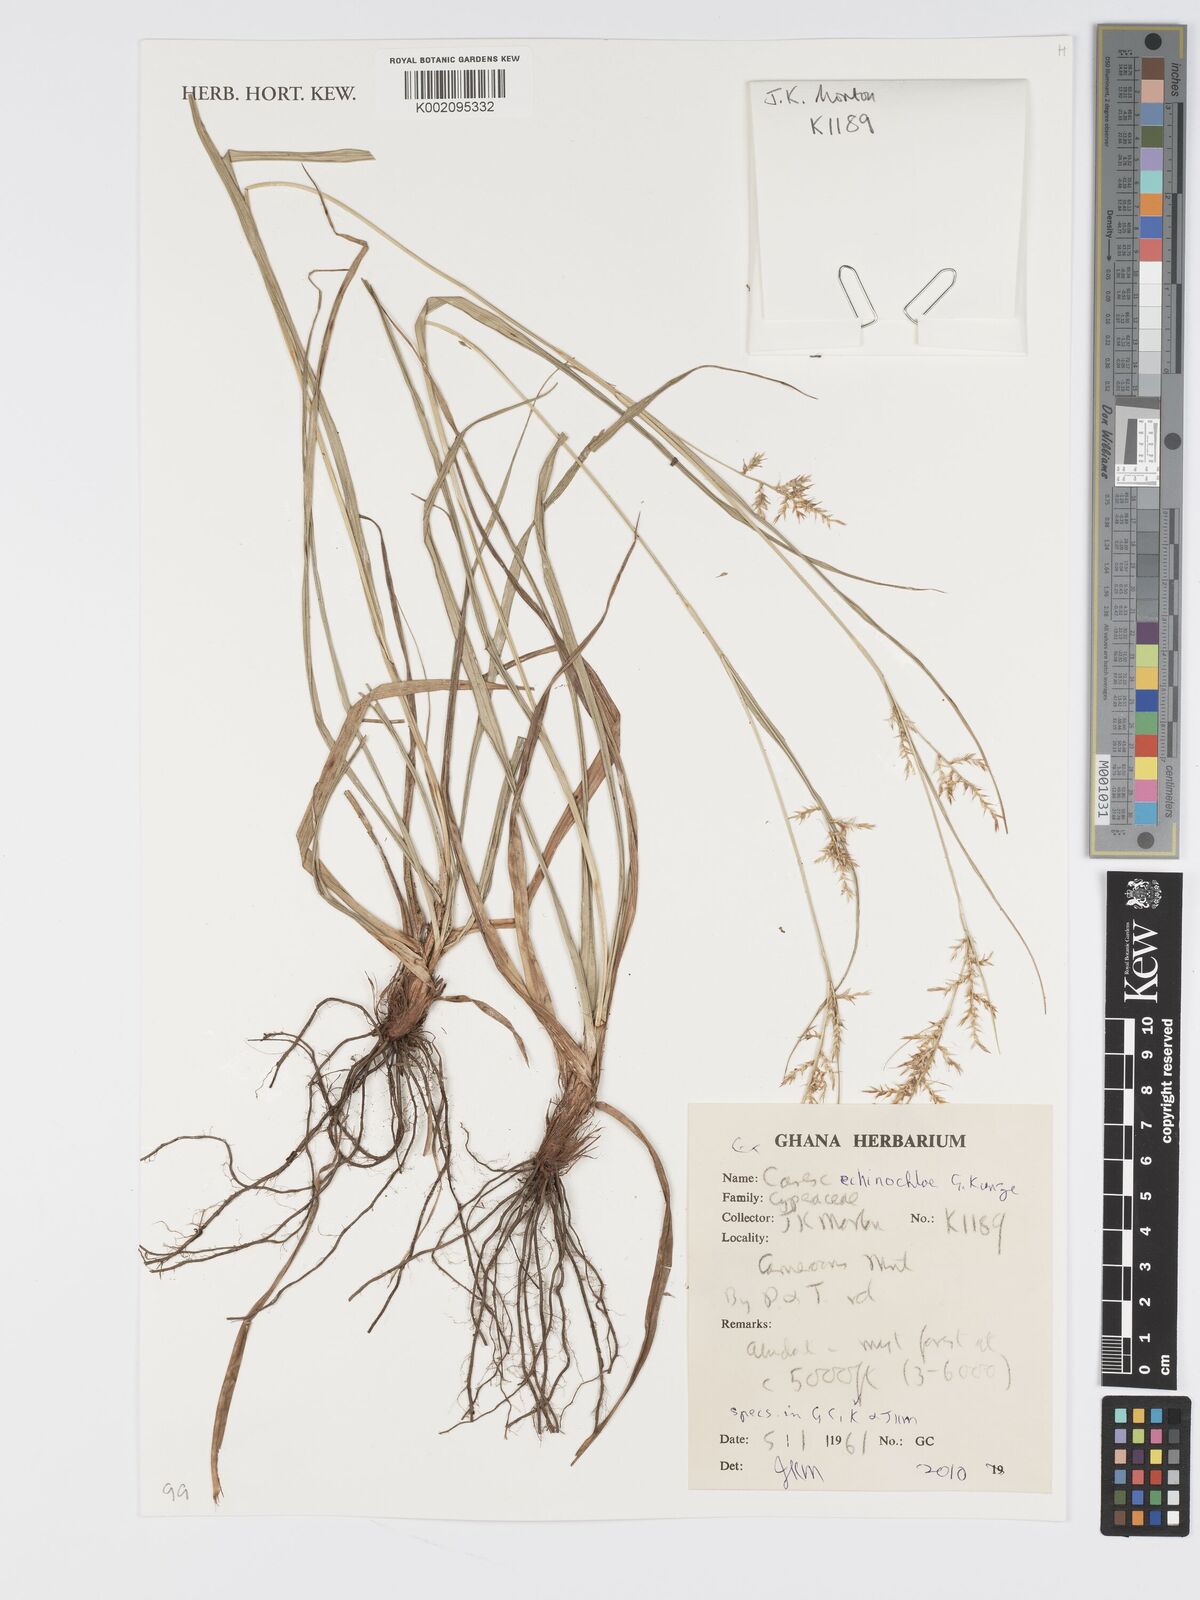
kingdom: Plantae
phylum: Tracheophyta
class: Liliopsida
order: Poales
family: Cyperaceae
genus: Carex
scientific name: Carex echinochloe
